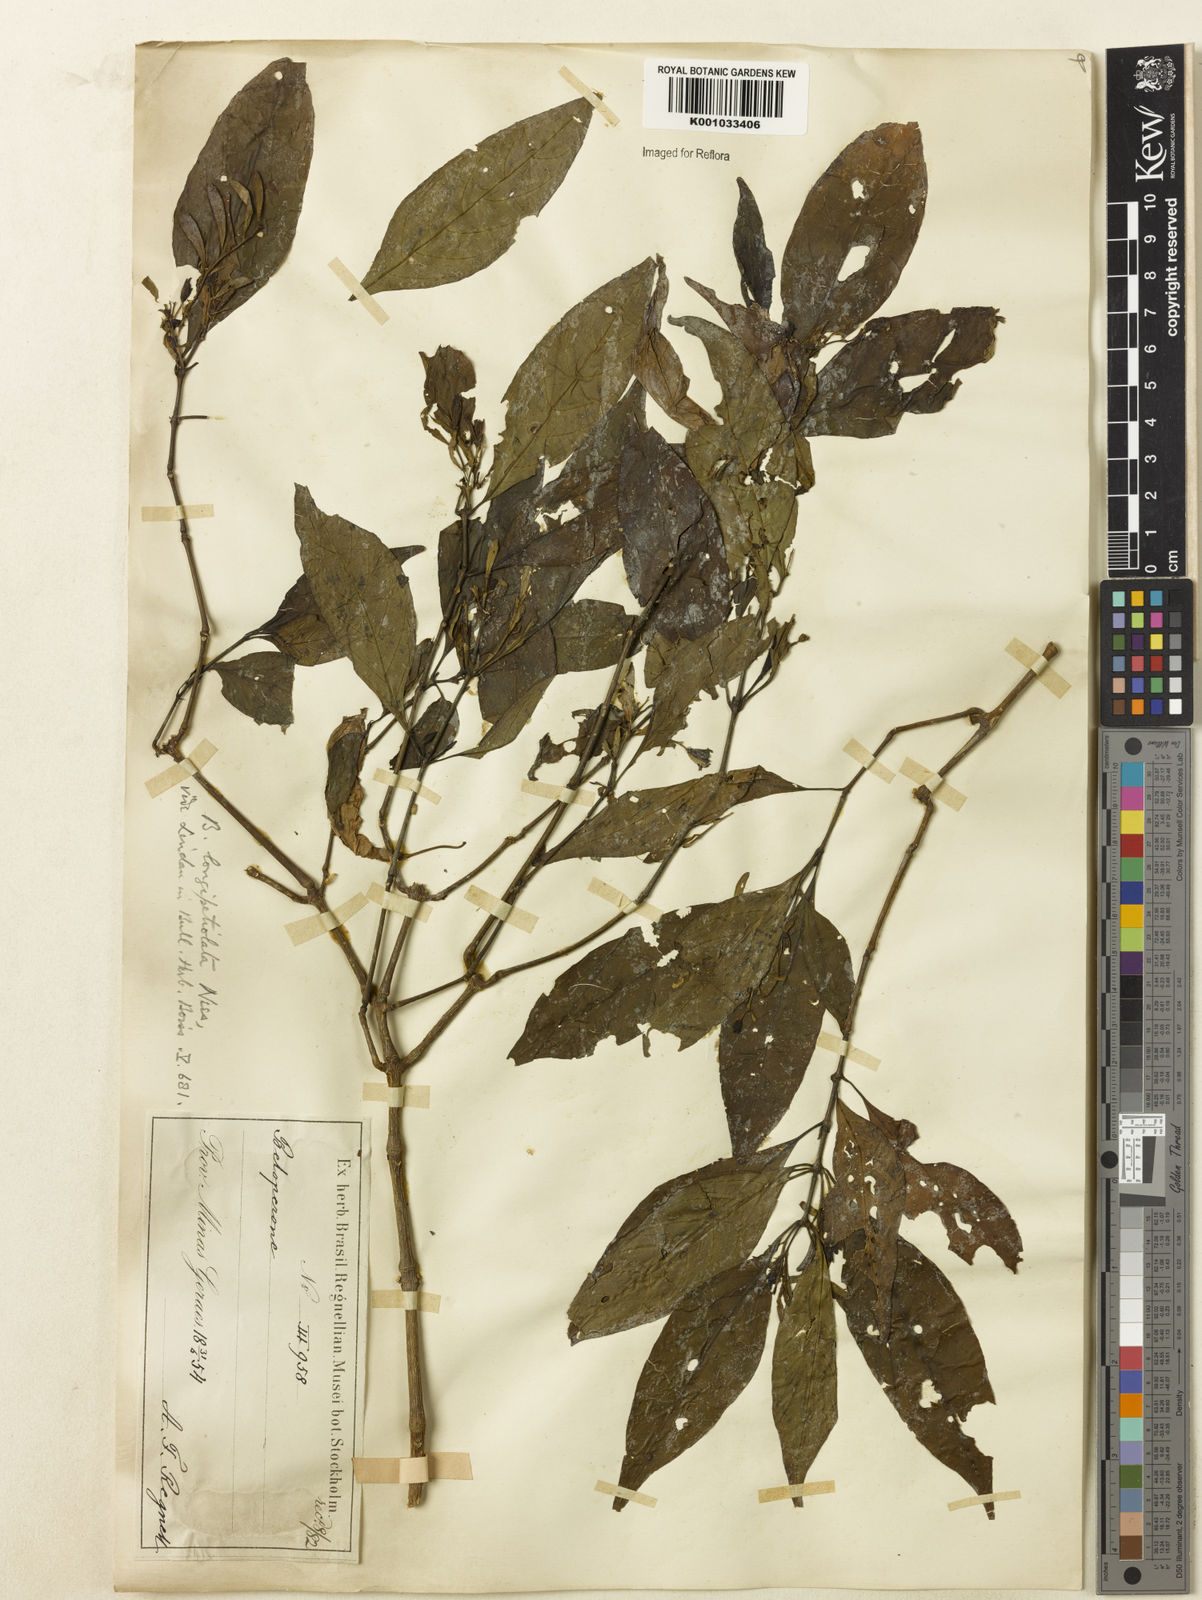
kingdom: Plantae
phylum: Tracheophyta
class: Magnoliopsida
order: Lamiales
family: Acanthaceae
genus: Justicia
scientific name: Justicia
